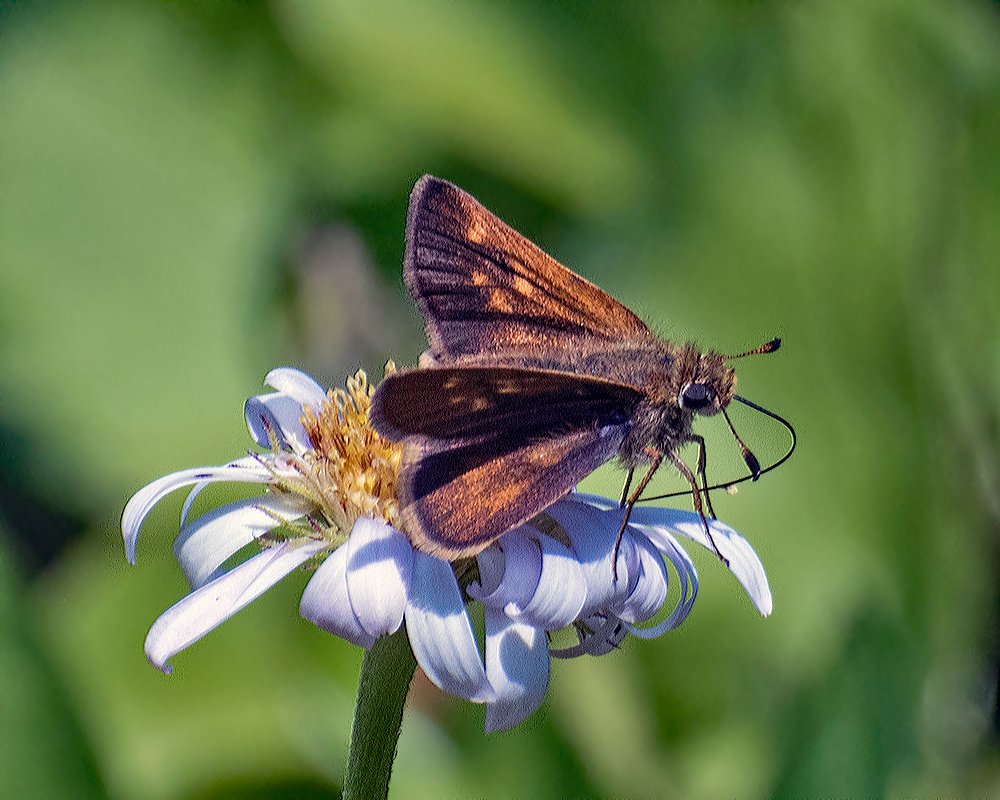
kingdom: Animalia
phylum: Arthropoda
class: Insecta
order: Lepidoptera
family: Hesperiidae
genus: Polites
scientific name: Polites mystic
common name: Sonoran Skipper
